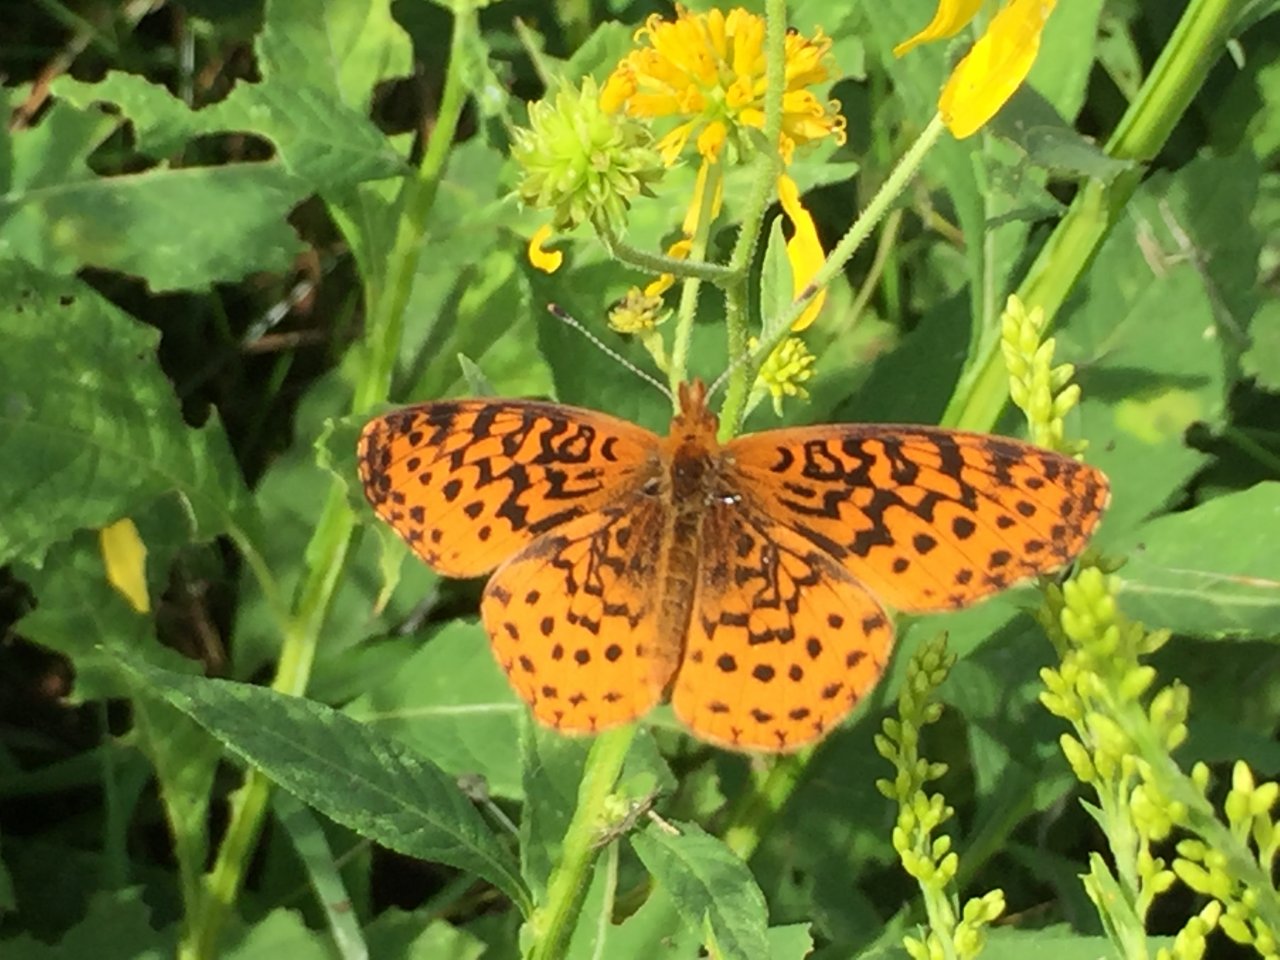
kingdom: Animalia
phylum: Arthropoda
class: Insecta
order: Lepidoptera
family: Nymphalidae
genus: Clossiana
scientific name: Clossiana toddi
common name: Meadow Fritillary
